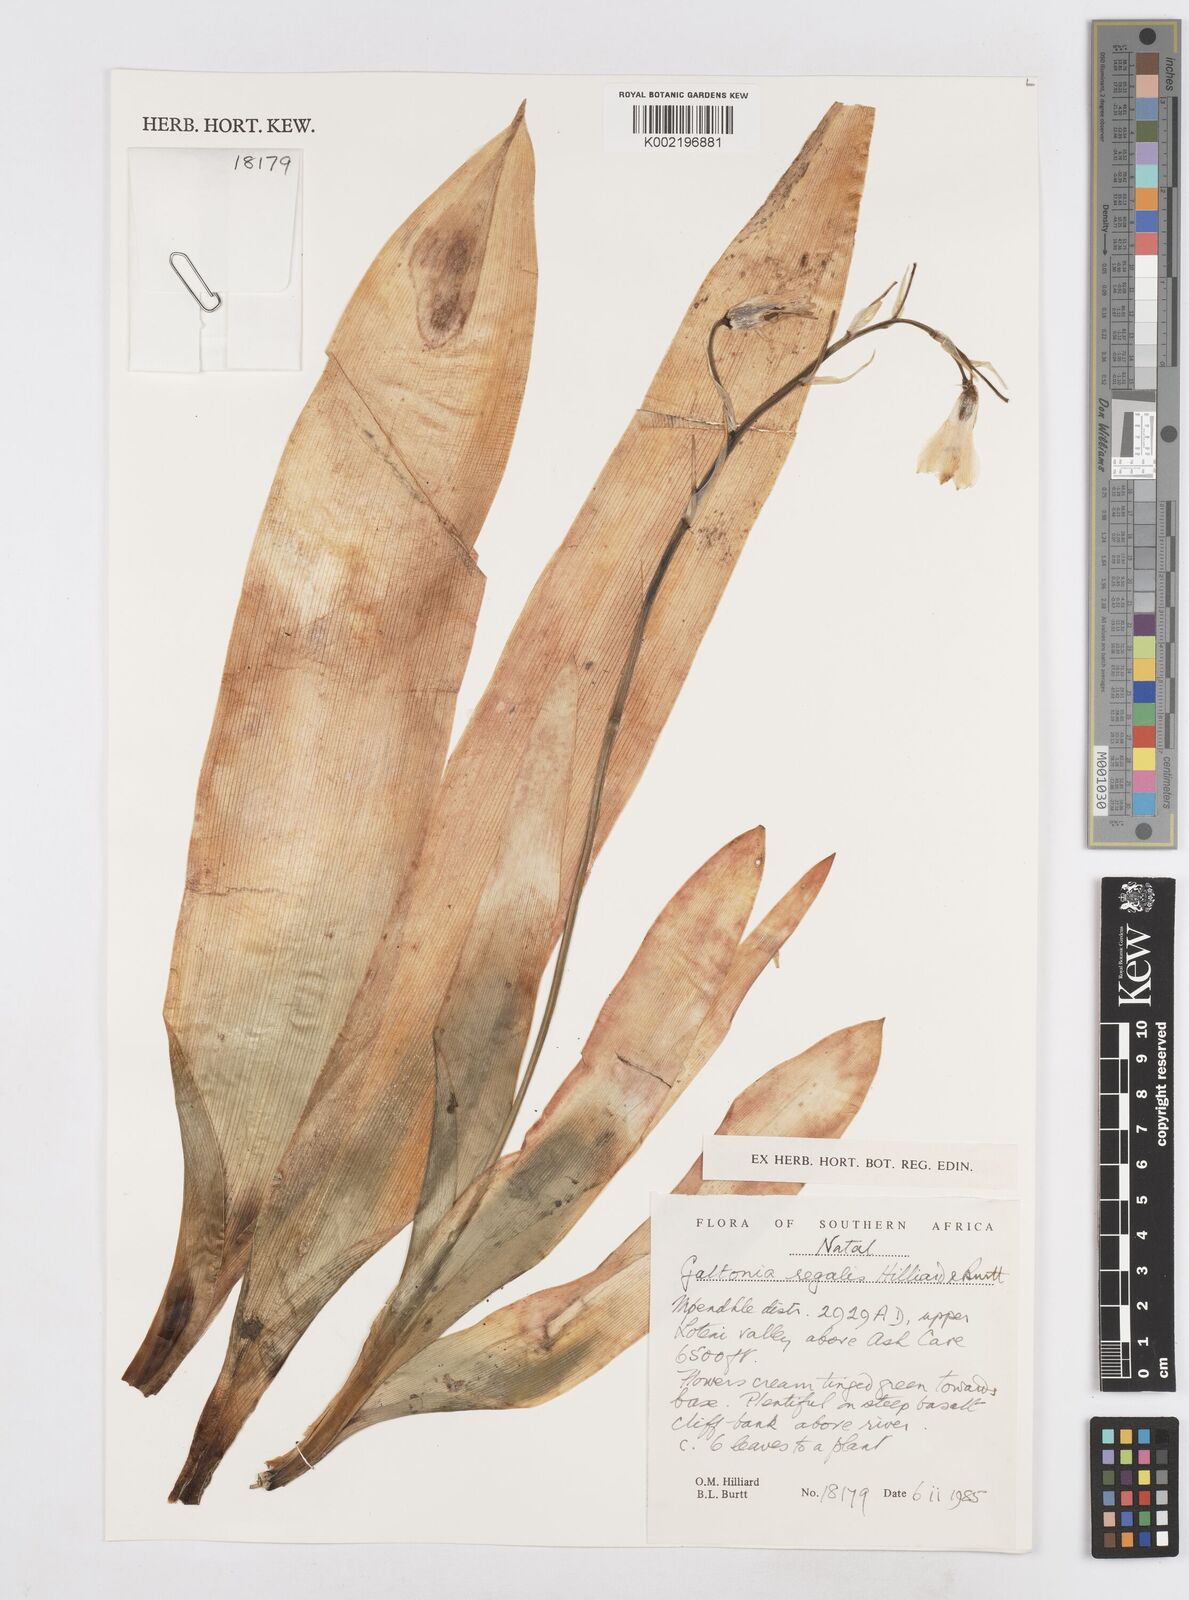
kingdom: Plantae
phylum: Tracheophyta
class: Liliopsida
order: Asparagales
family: Asparagaceae
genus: Ornithogalum
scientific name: Ornithogalum regale
